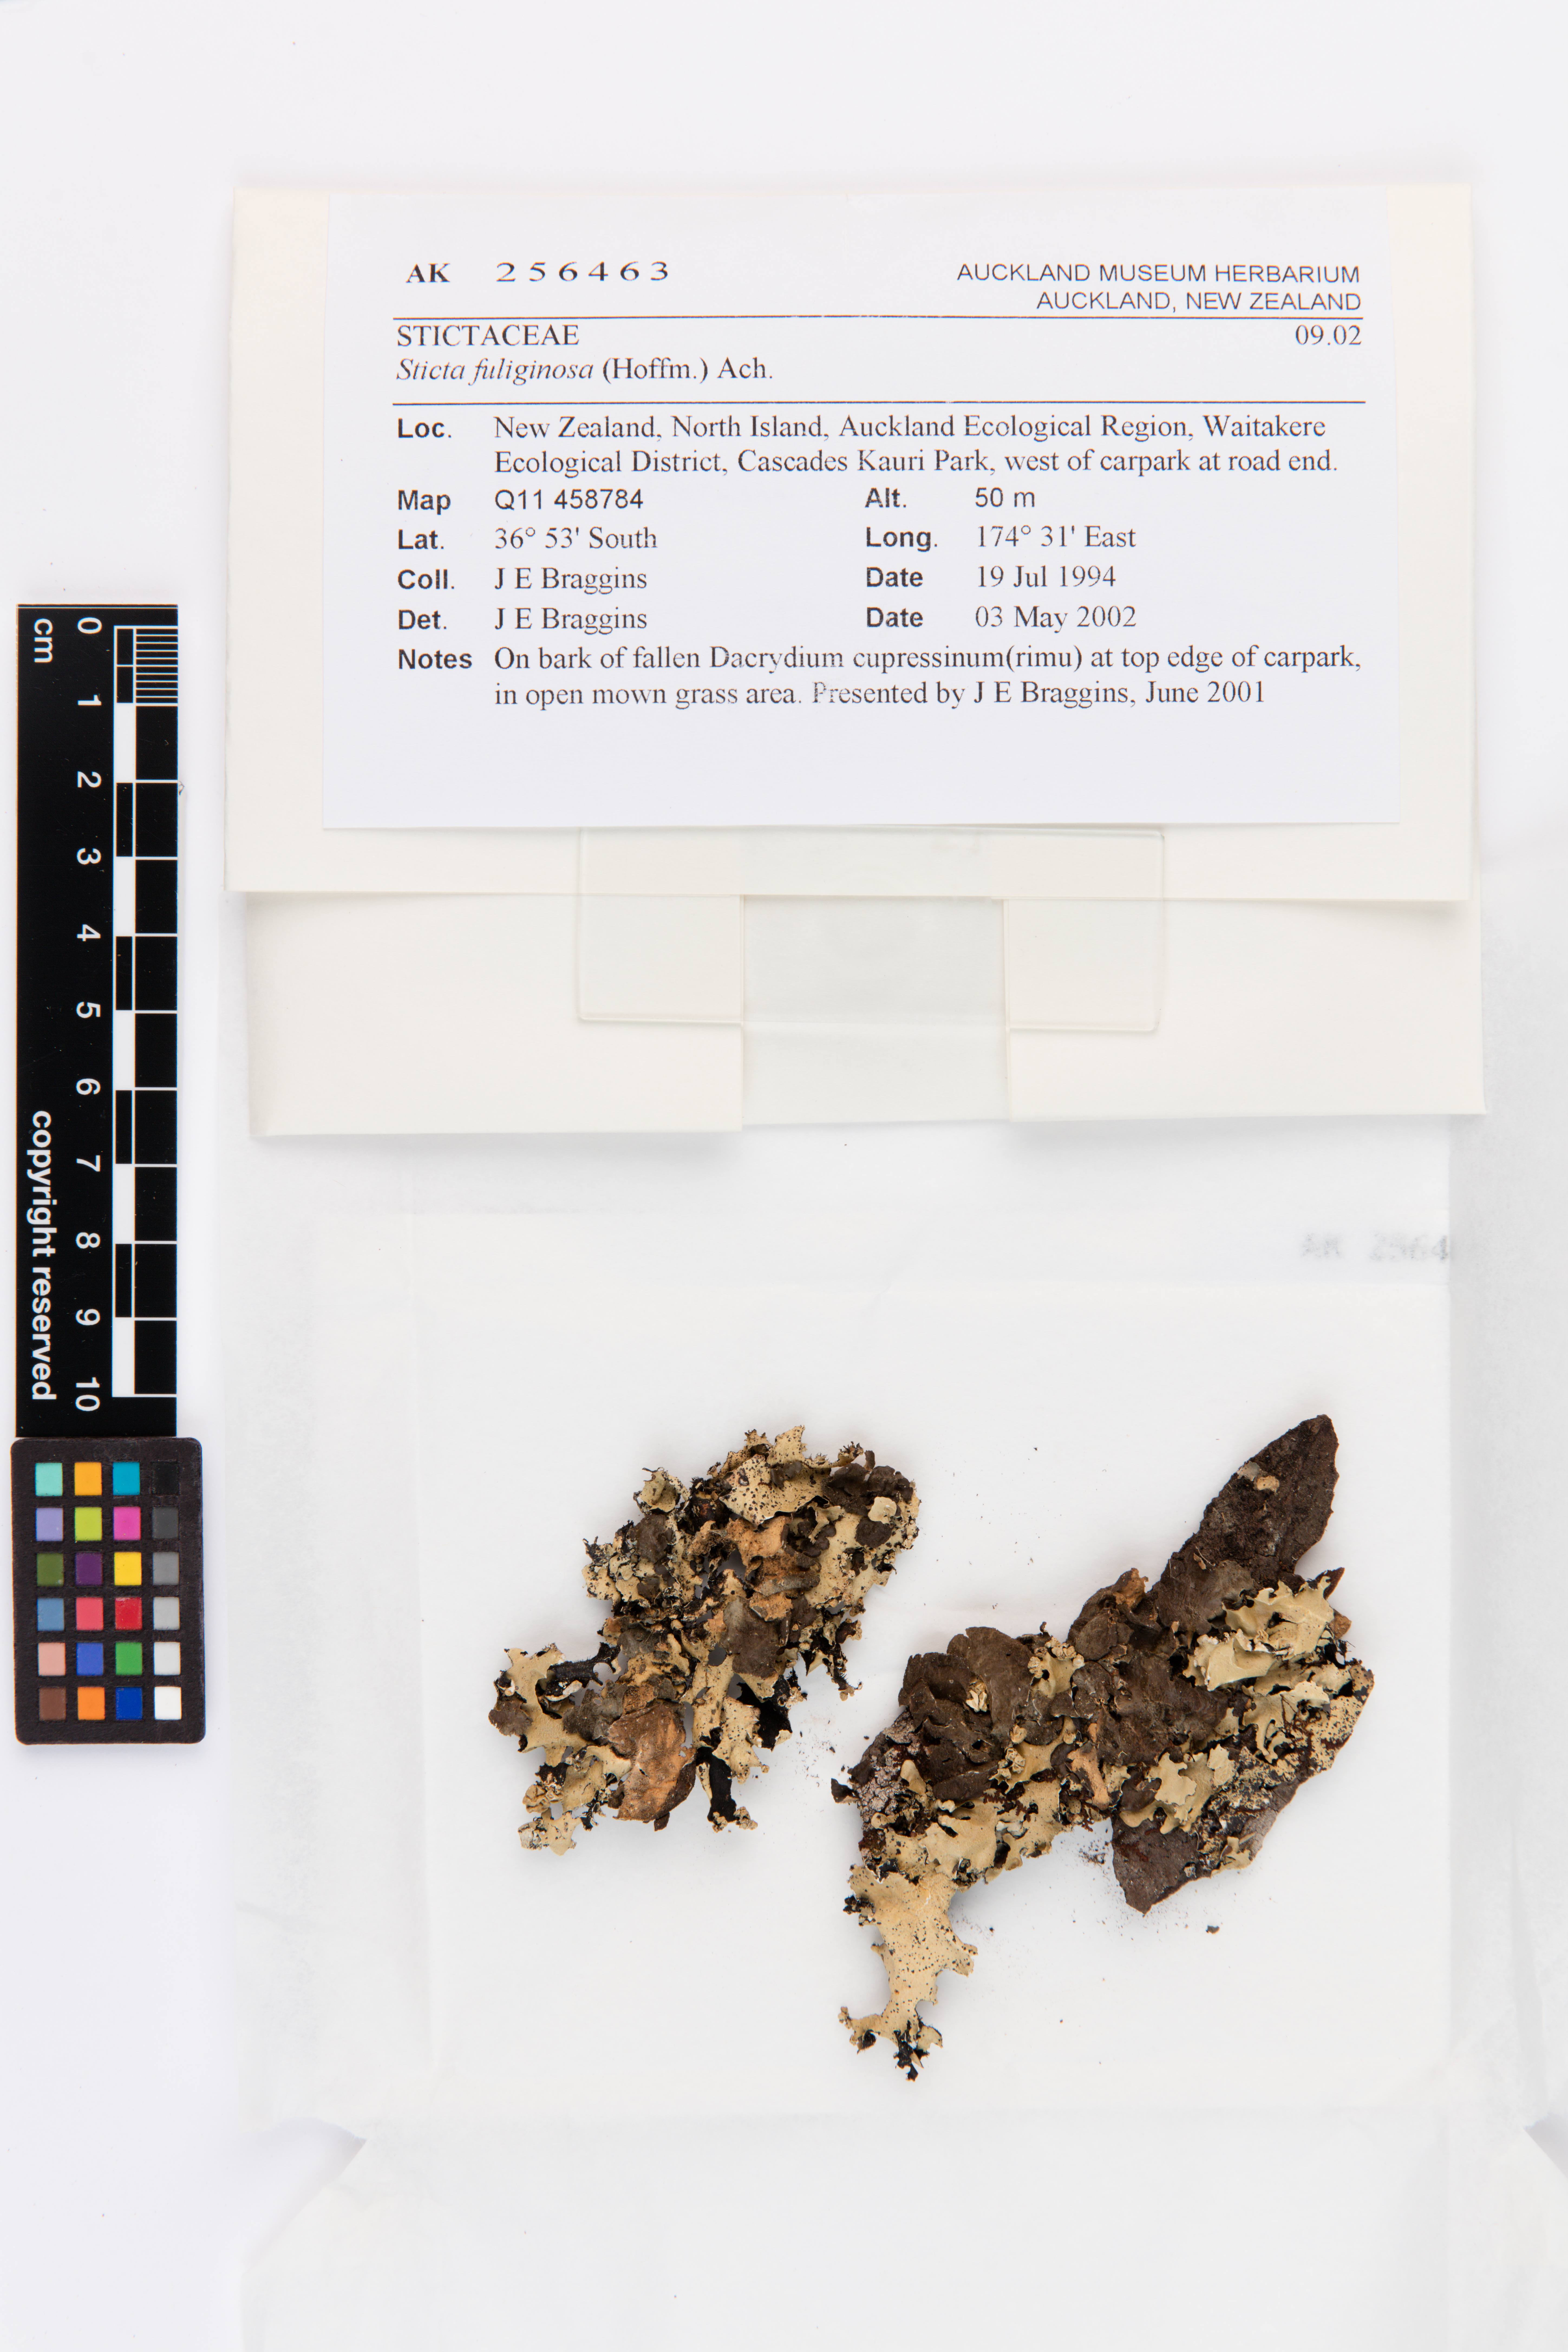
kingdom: Fungi
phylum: Ascomycota
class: Lecanoromycetes
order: Peltigerales
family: Lobariaceae
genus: Sticta
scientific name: Sticta fuliginosa
